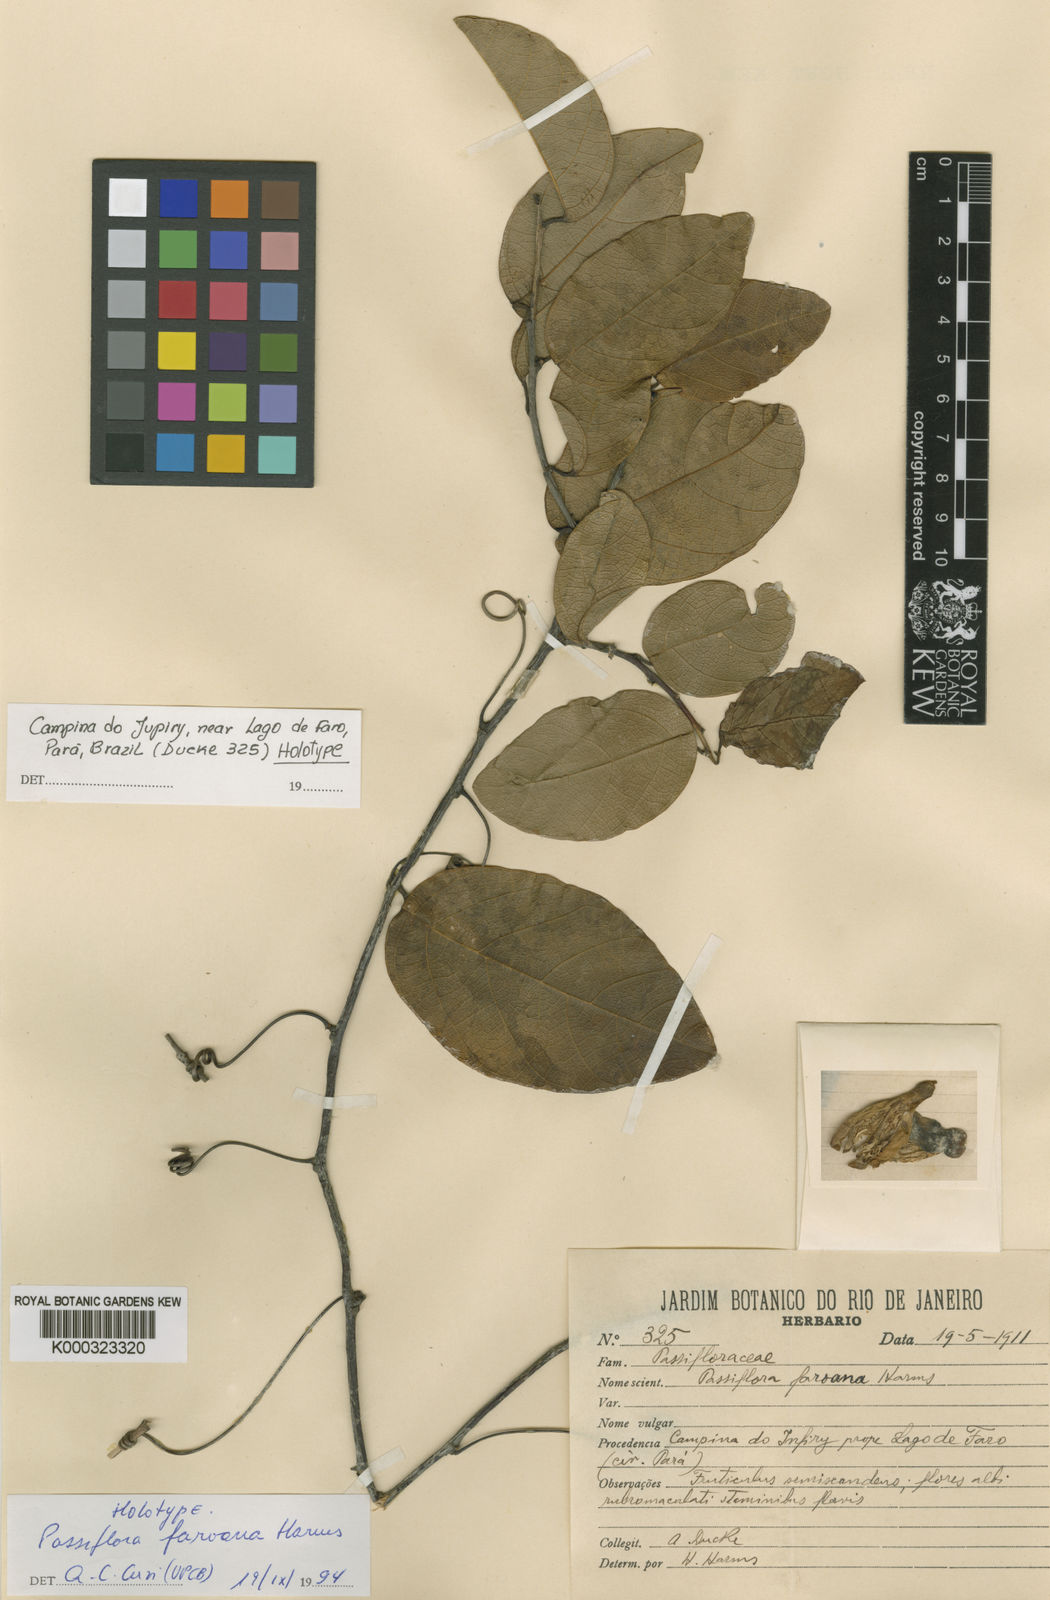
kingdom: Plantae
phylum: Tracheophyta
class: Magnoliopsida
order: Malpighiales
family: Passifloraceae
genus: Passiflora
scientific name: Passiflora faroana
